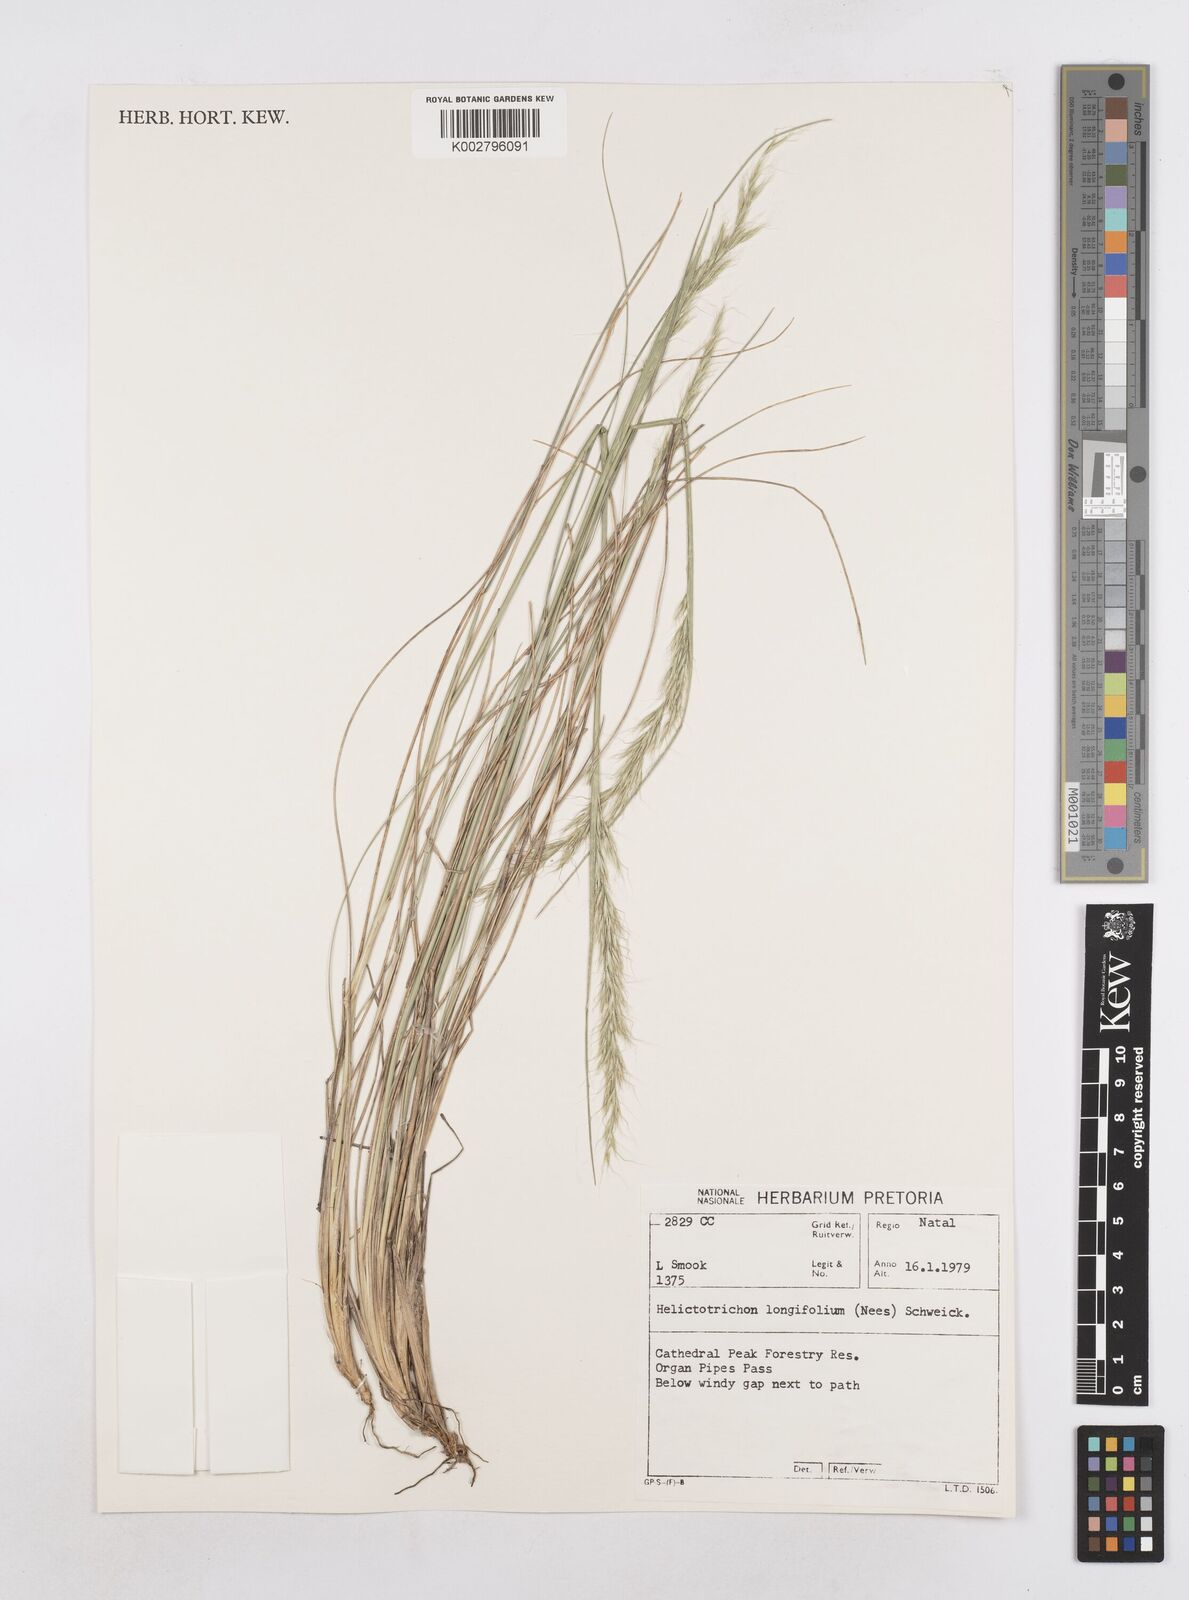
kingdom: Plantae
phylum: Tracheophyta
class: Liliopsida
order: Poales
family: Poaceae
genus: Trisetopsis
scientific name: Trisetopsis longifolia
